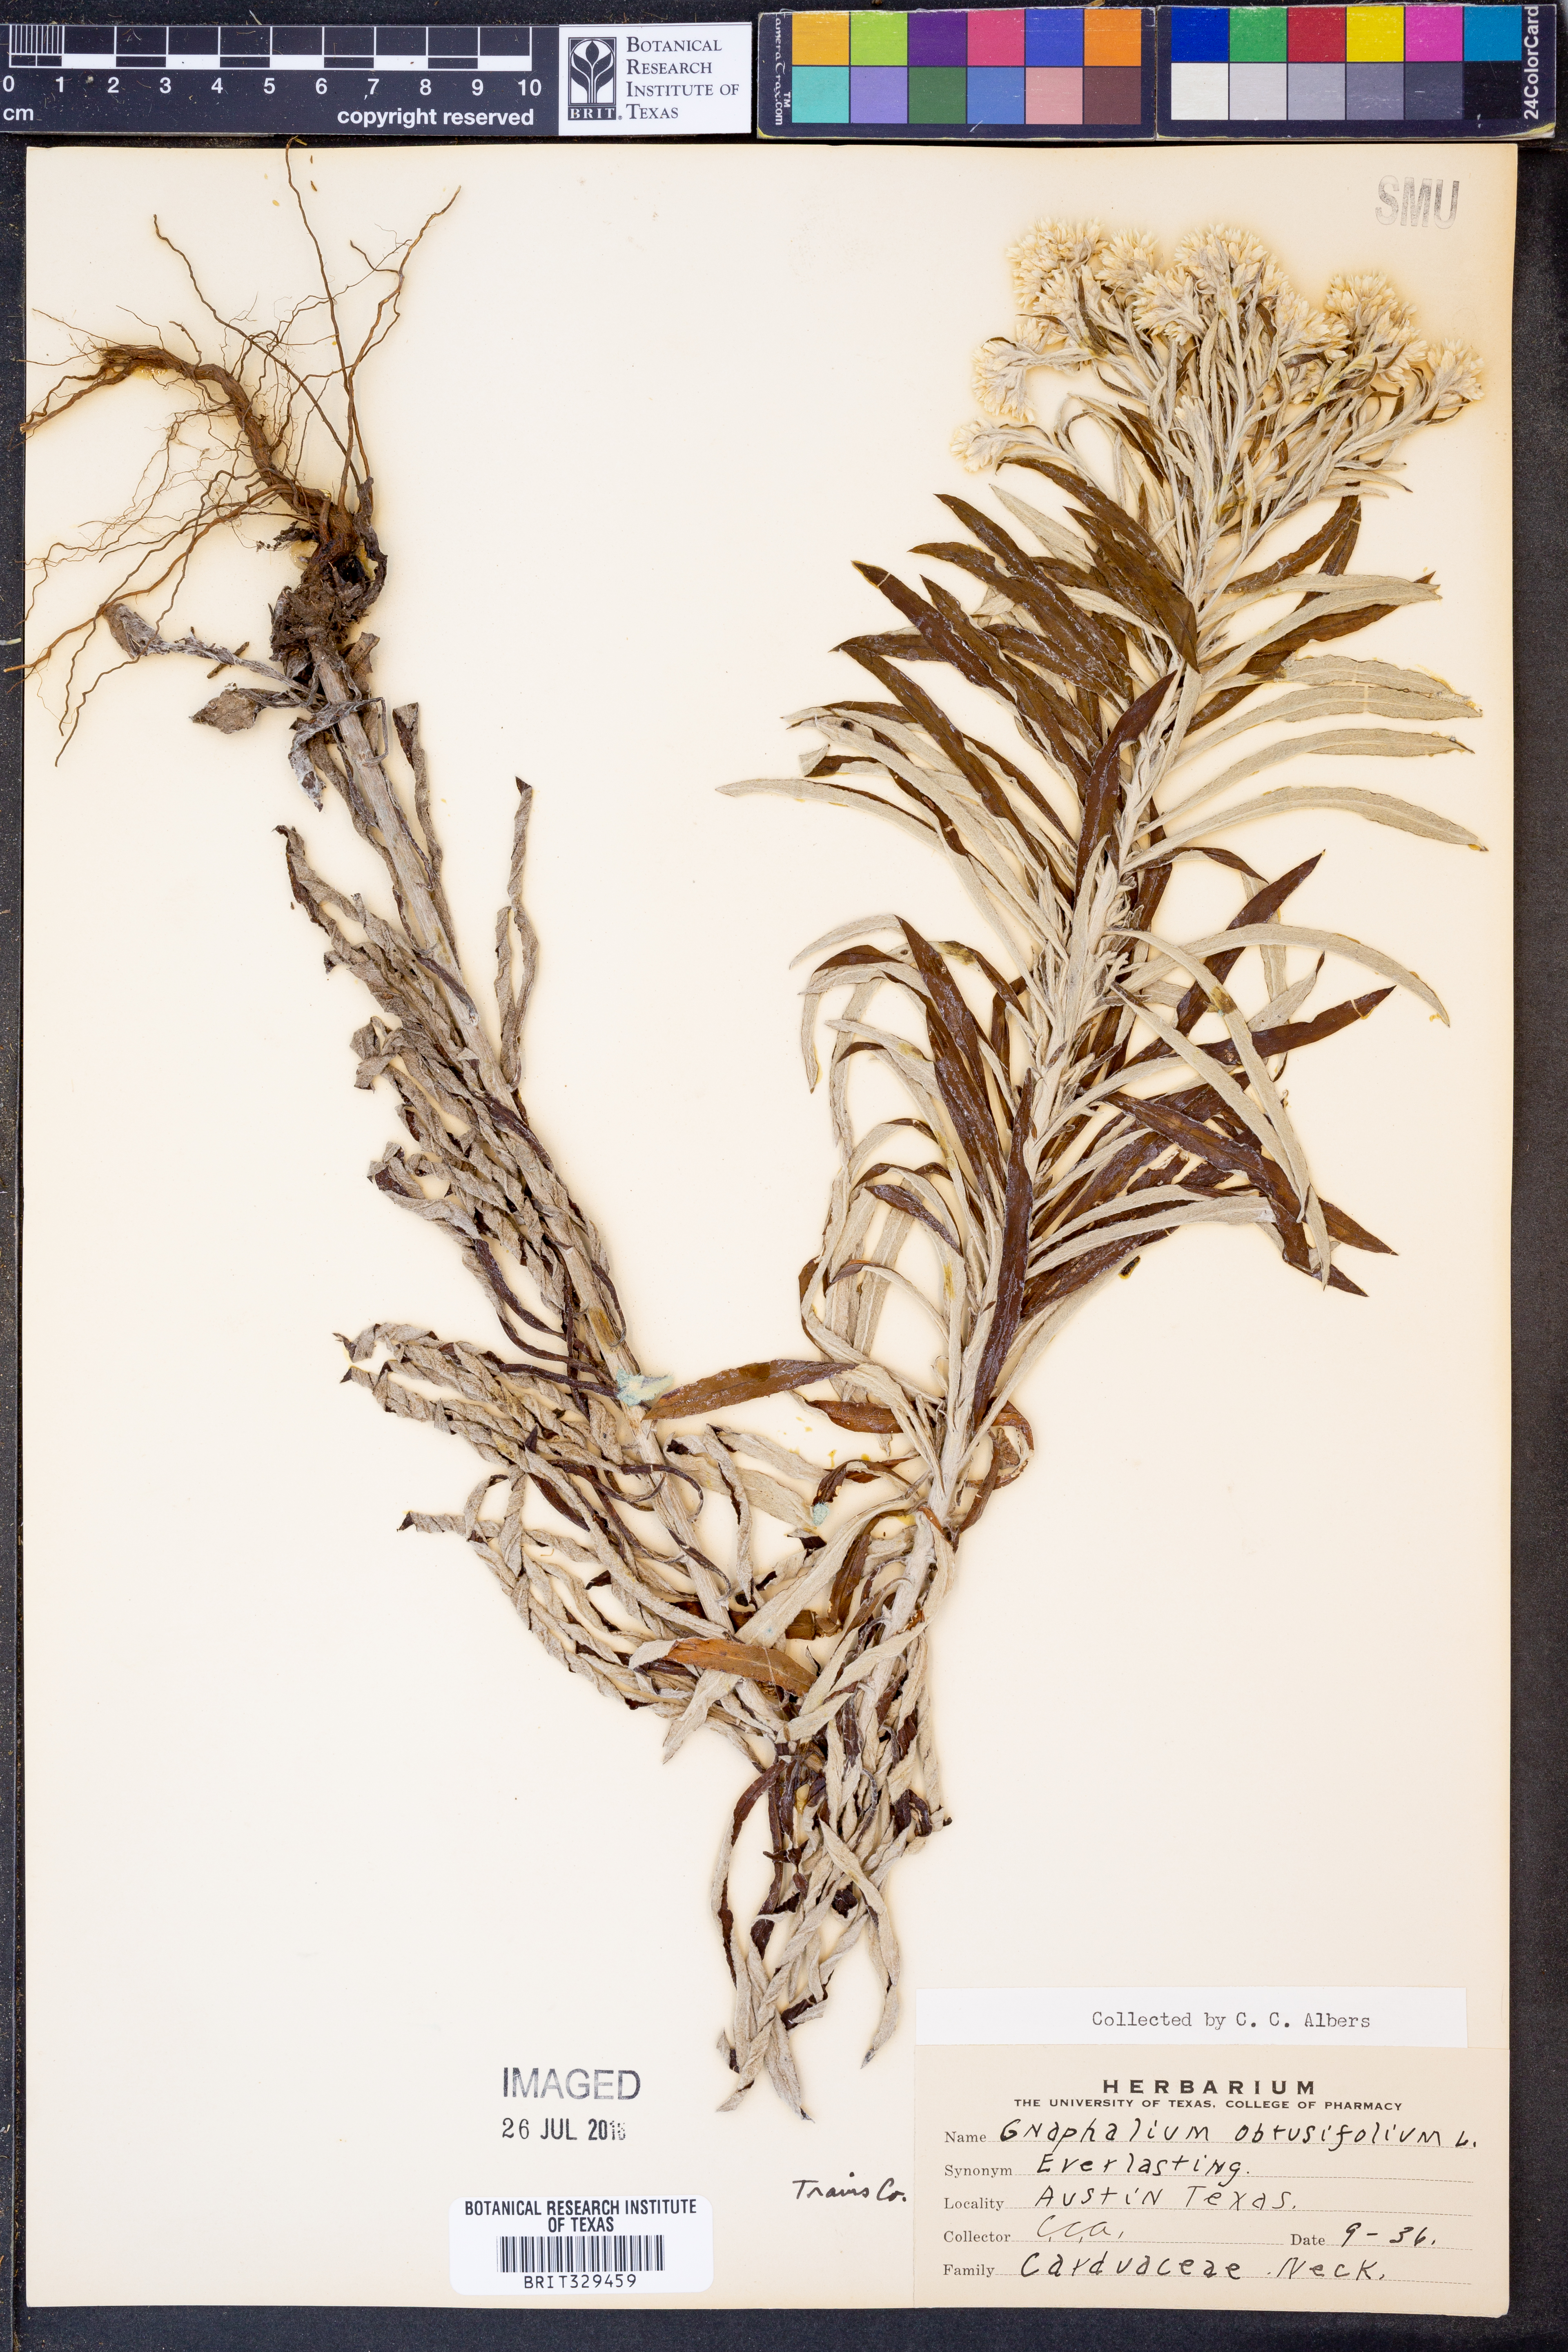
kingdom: Plantae
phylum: Tracheophyta
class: Magnoliopsida
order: Asterales
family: Asteraceae
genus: Pseudognaphalium
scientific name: Pseudognaphalium obtusifolium
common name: Eastern rabbit-tobacco
